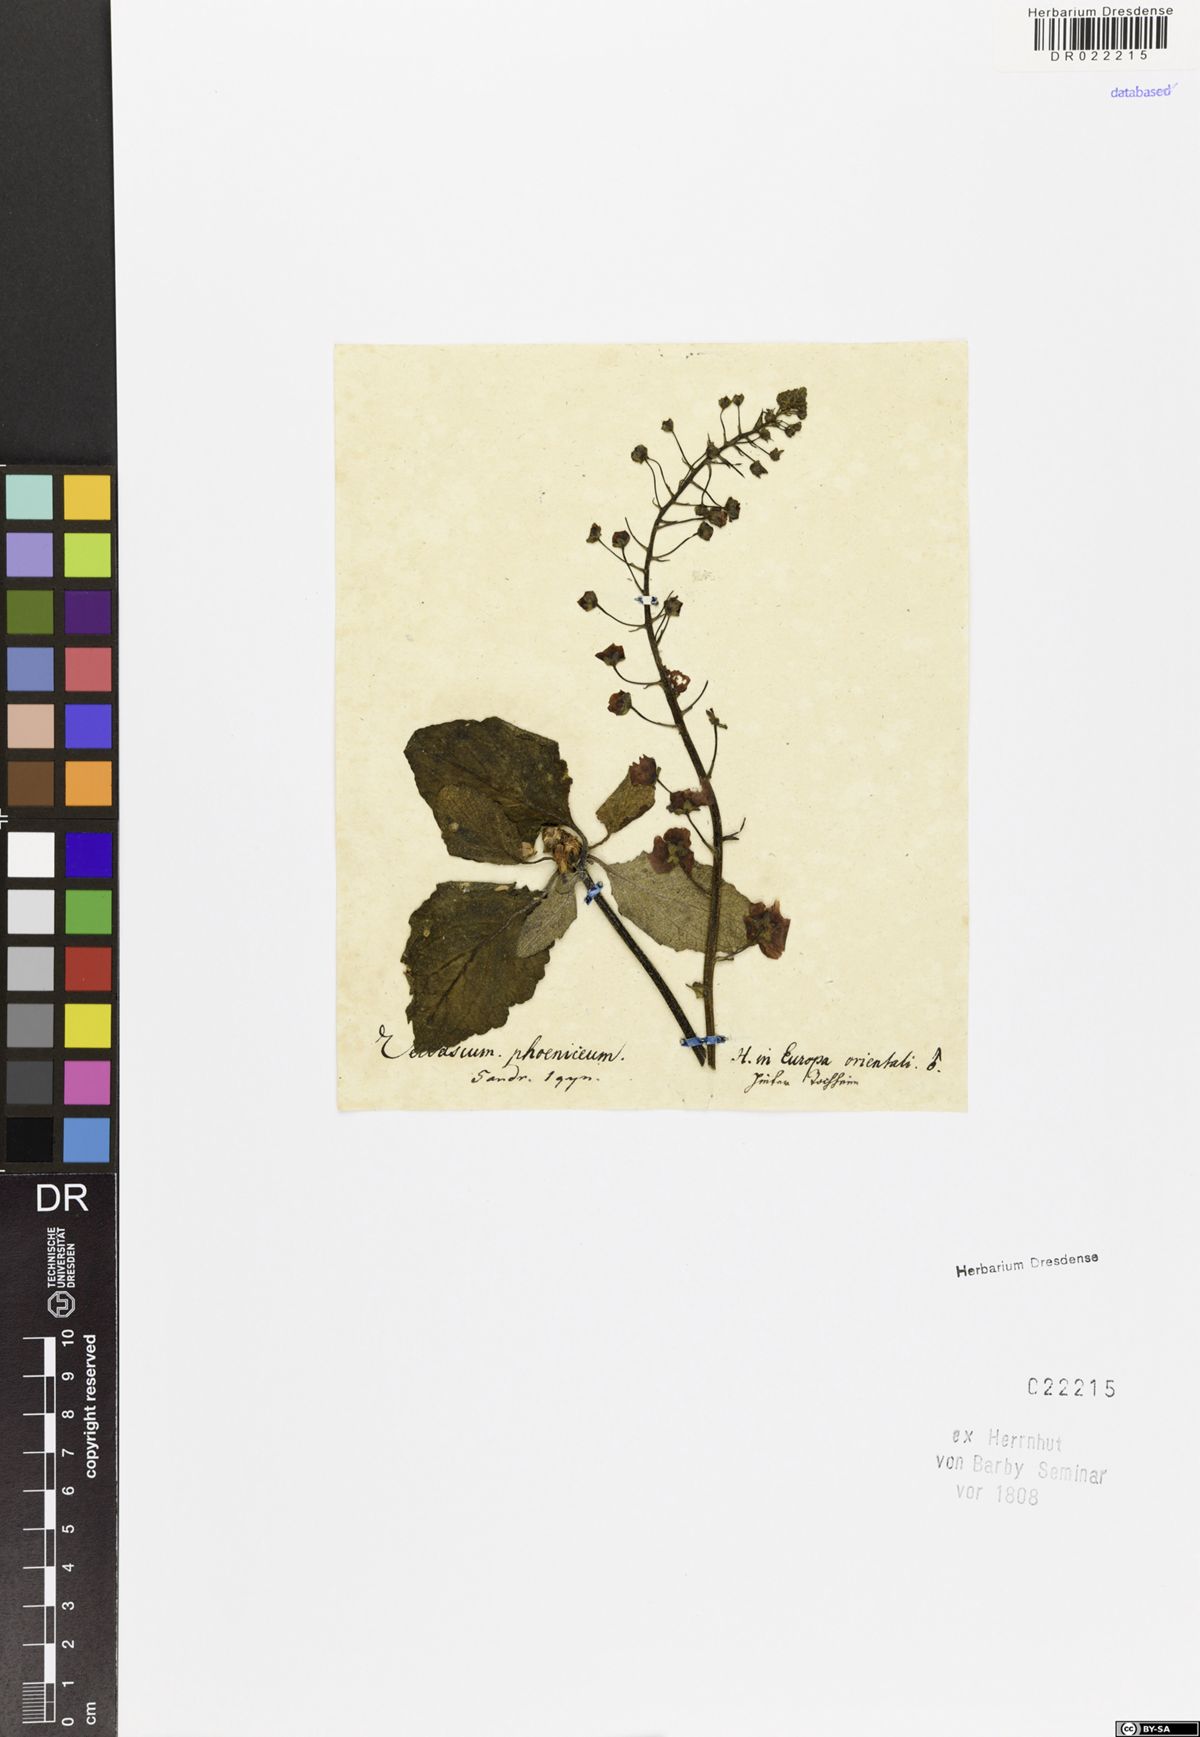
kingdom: Plantae
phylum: Tracheophyta
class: Magnoliopsida
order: Lamiales
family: Scrophulariaceae
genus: Verbascum
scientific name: Verbascum phoeniceum
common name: Purple mullein
